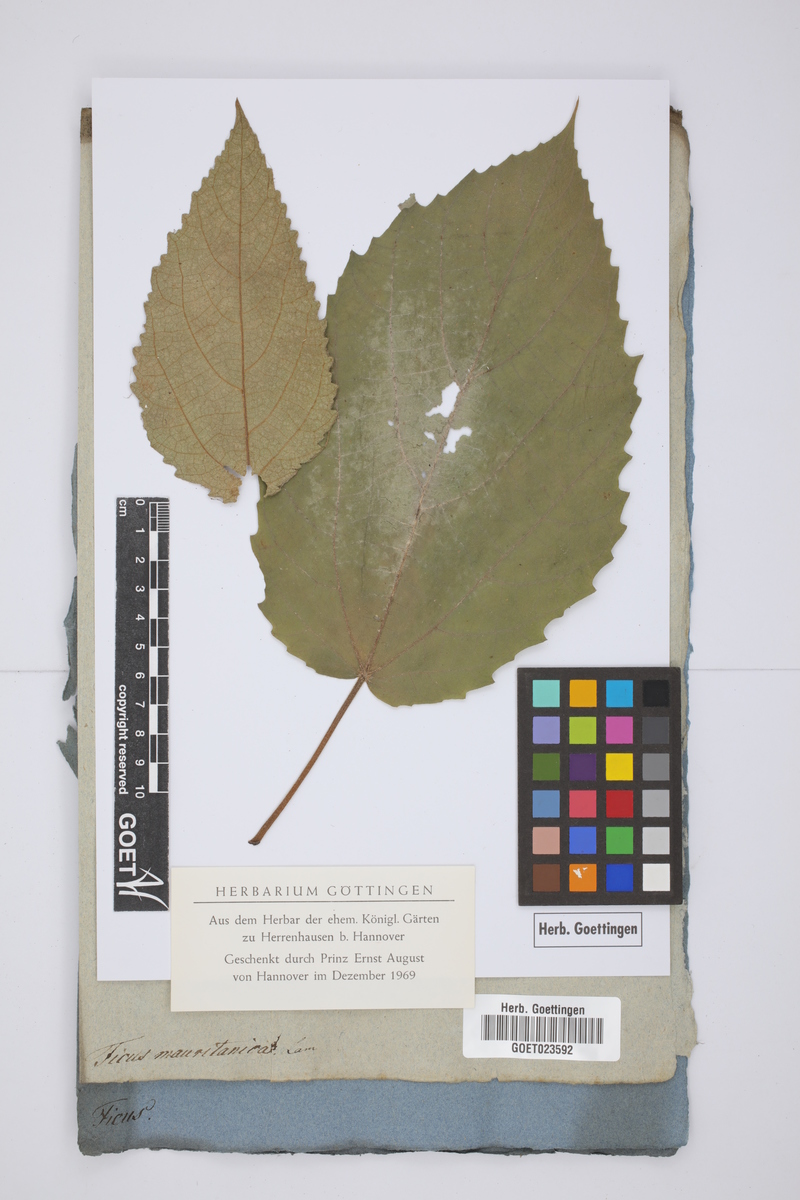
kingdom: Plantae
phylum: Tracheophyta
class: Magnoliopsida
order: Rosales
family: Moraceae
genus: Ficus
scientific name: Ficus mauritiana
